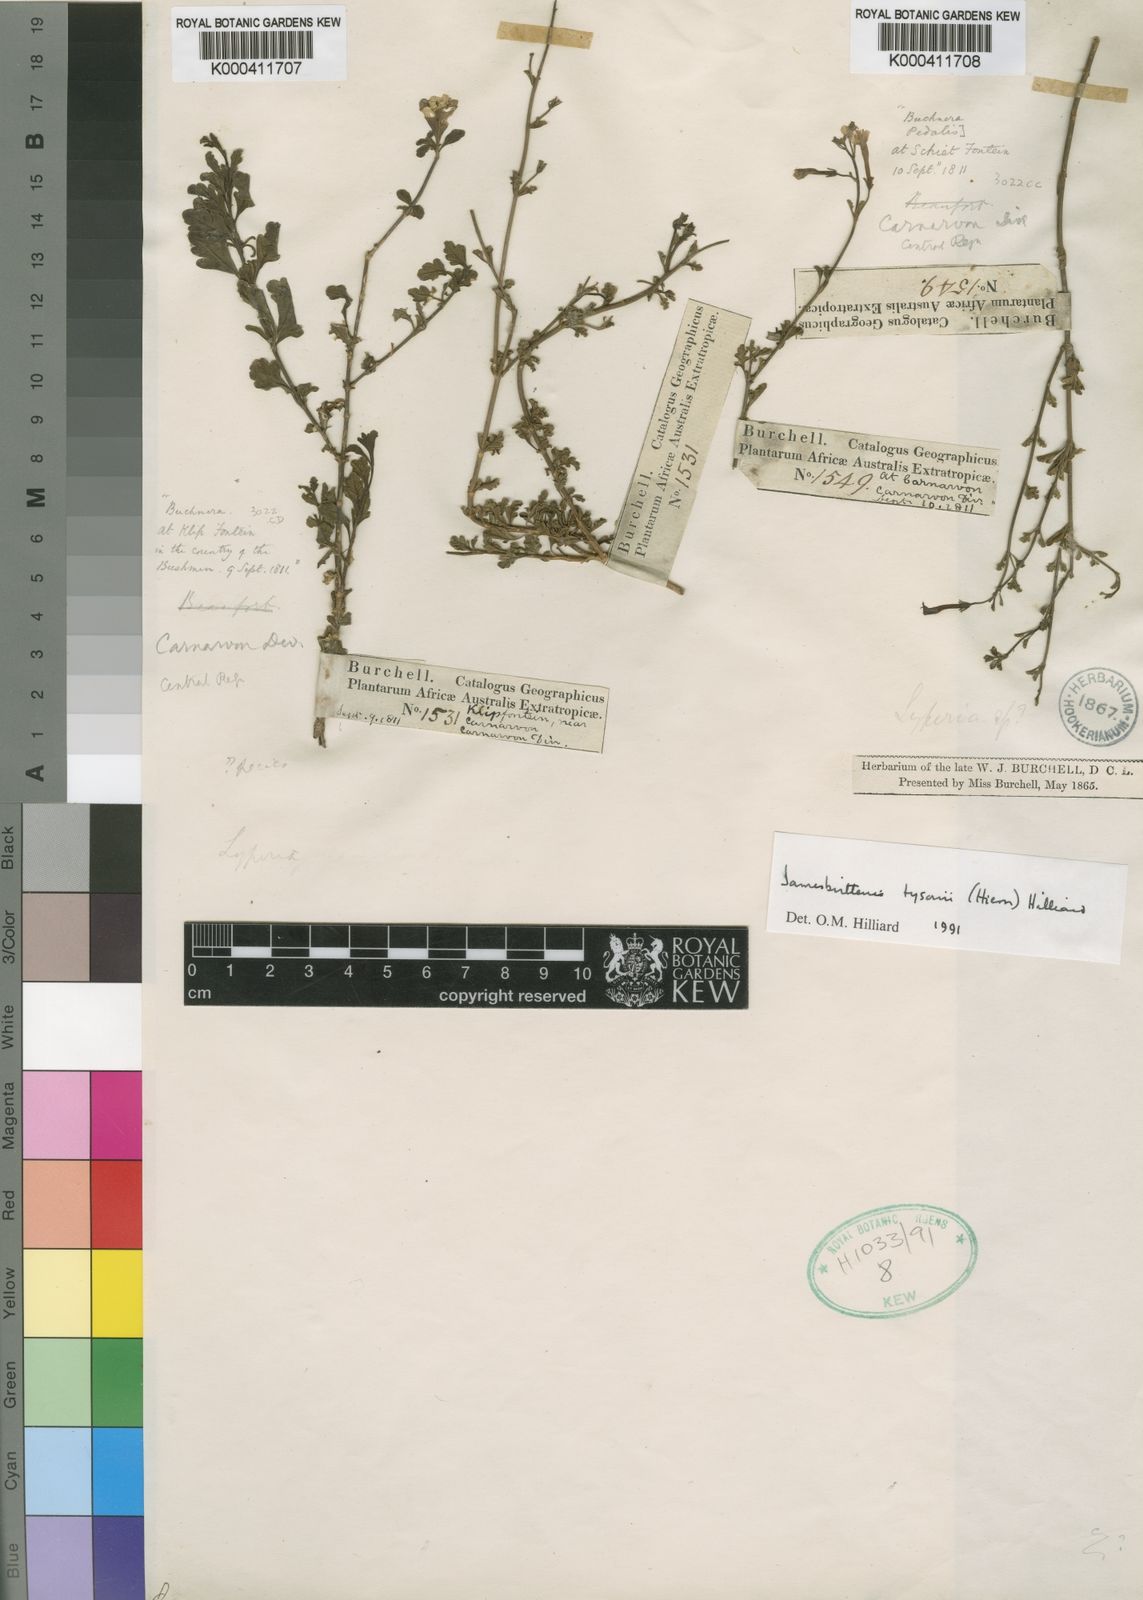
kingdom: Plantae
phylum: Tracheophyta
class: Magnoliopsida
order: Lamiales
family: Scrophulariaceae
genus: Jamesbrittenia
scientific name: Jamesbrittenia tysonii
